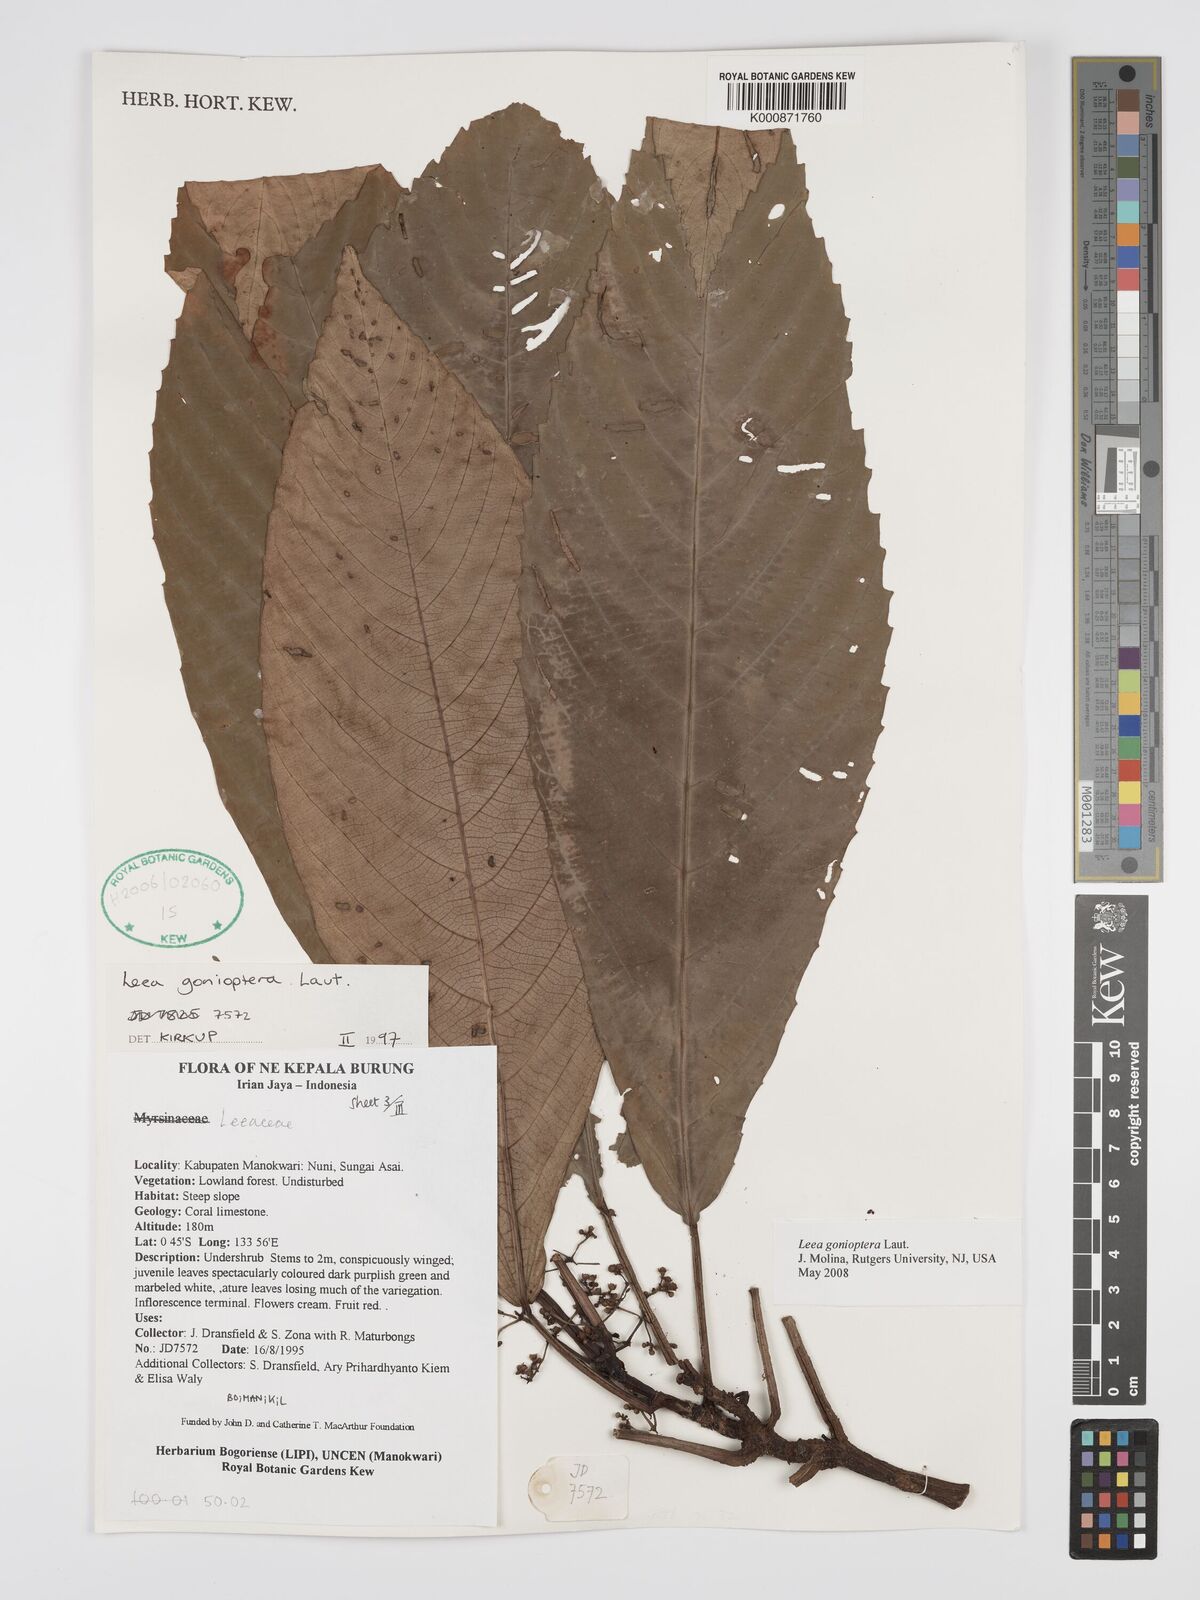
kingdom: Plantae
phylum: Tracheophyta
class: Magnoliopsida
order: Vitales
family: Vitaceae
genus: Leea
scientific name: Leea gonioptera
